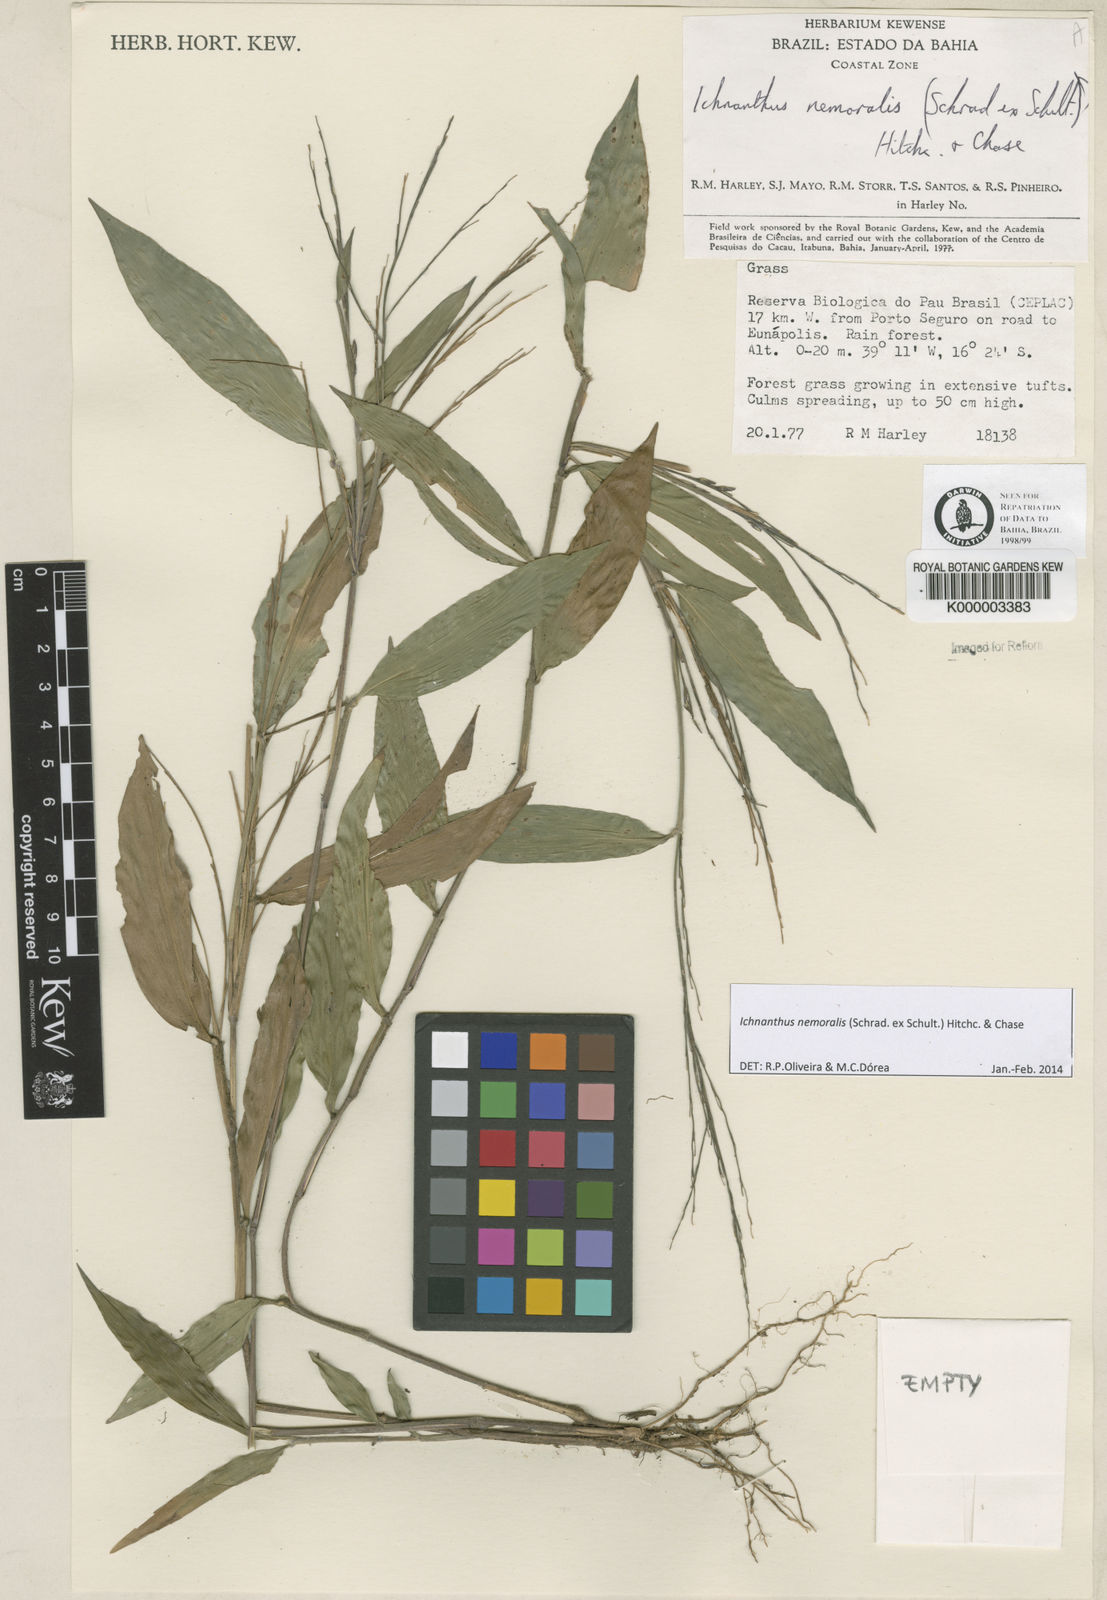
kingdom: Plantae
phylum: Tracheophyta
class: Liliopsida
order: Poales
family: Poaceae
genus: Ichnanthus
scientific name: Ichnanthus nemoralis
